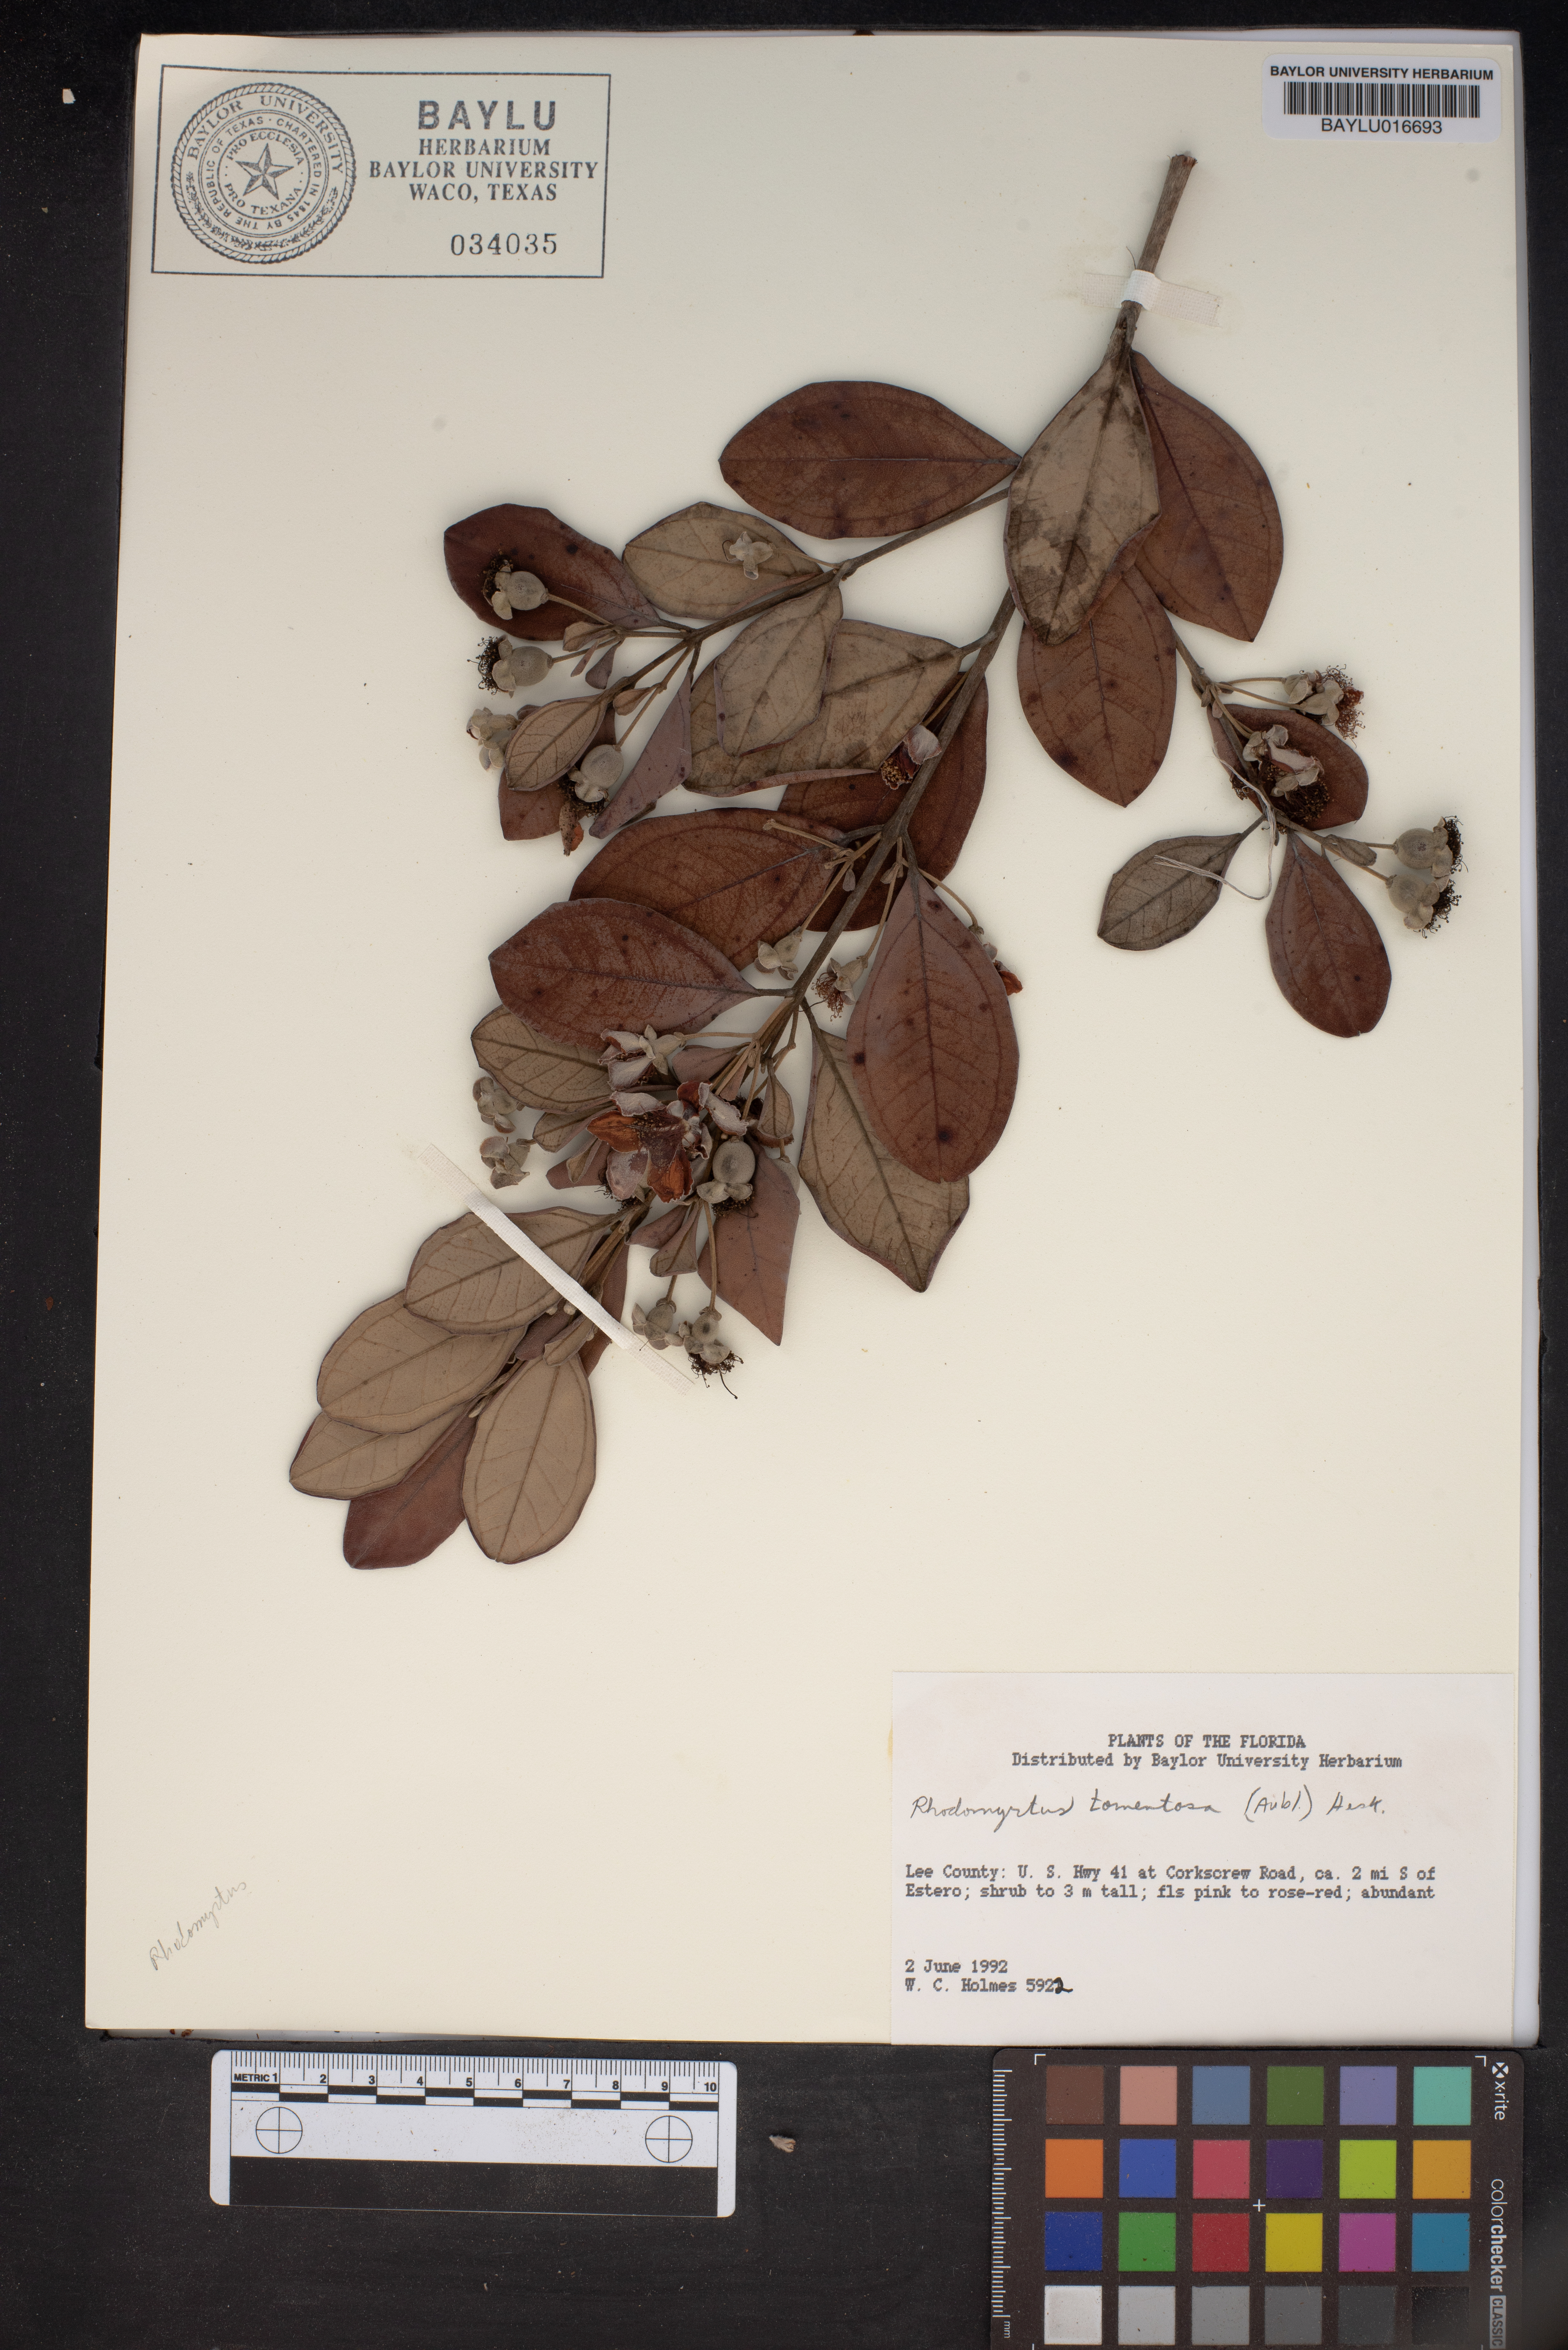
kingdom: Plantae
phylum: Tracheophyta
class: Magnoliopsida
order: Myrtales
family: Myrtaceae
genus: Rhodomyrtus
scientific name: Rhodomyrtus tomentosa
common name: Rose myrtle
